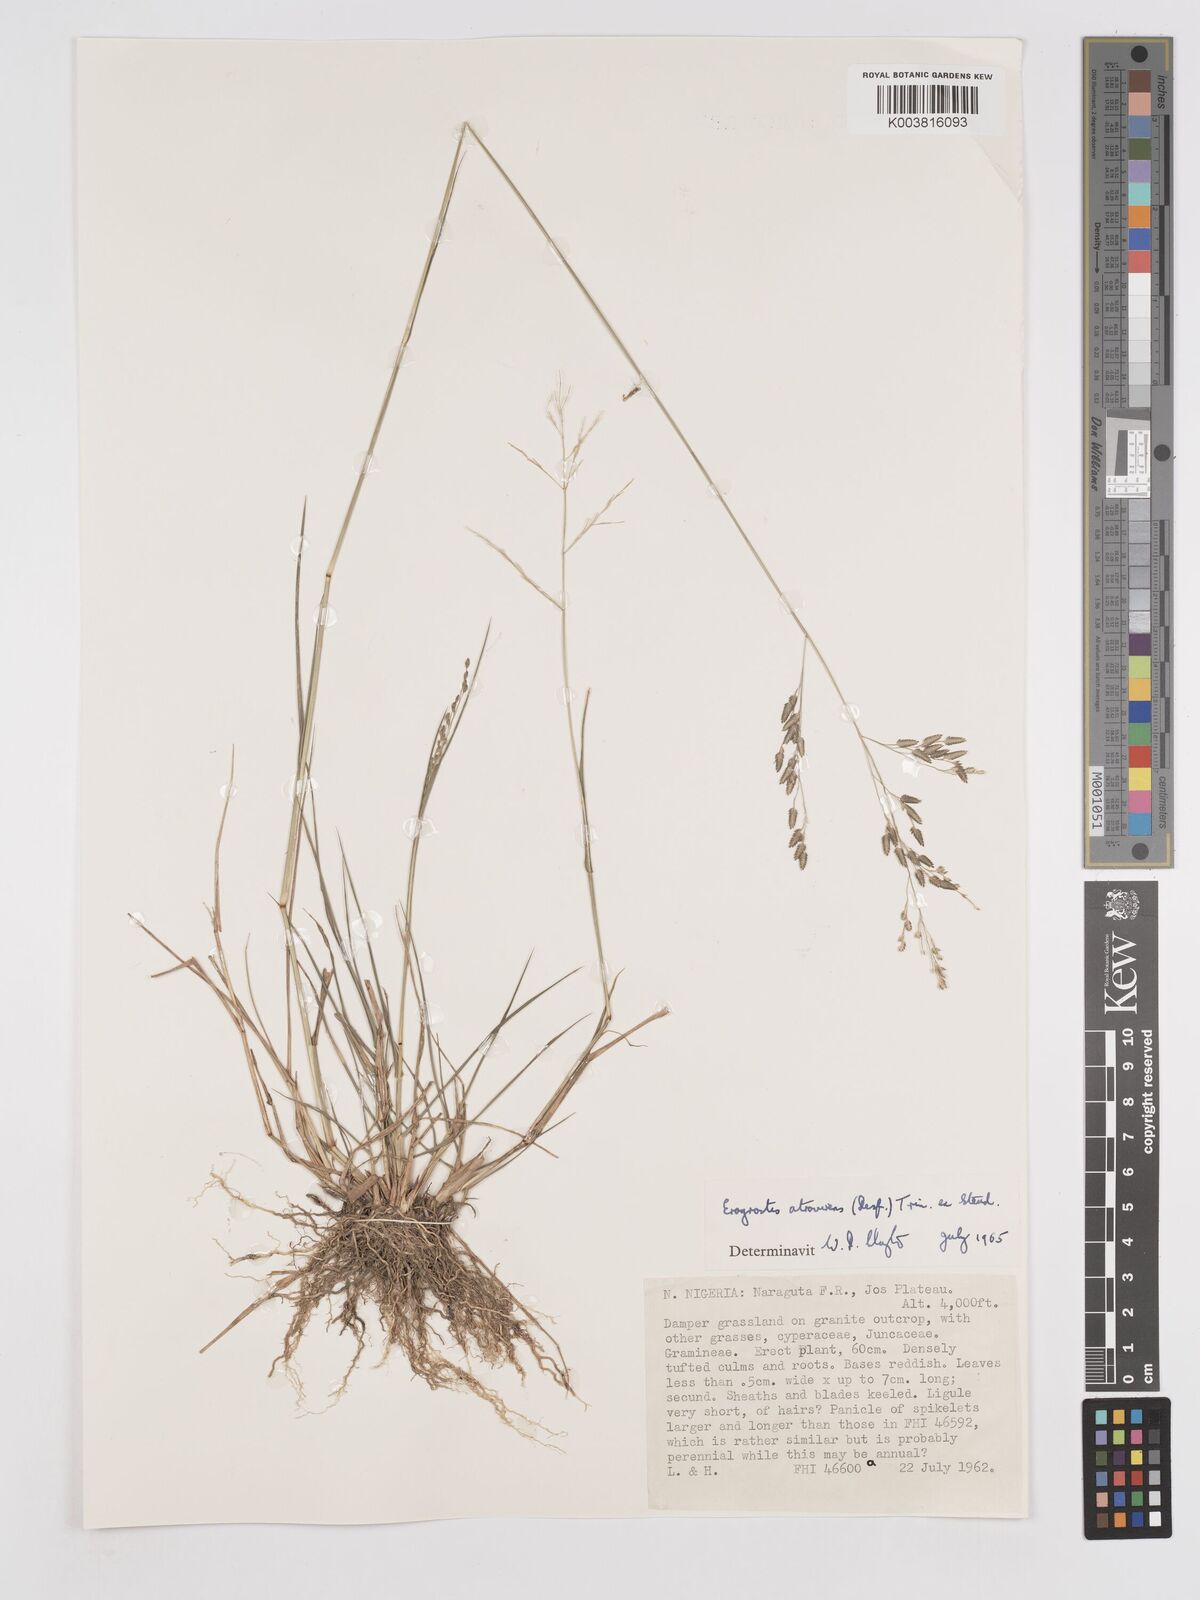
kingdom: Plantae
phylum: Tracheophyta
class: Liliopsida
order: Poales
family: Poaceae
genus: Eragrostis
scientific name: Eragrostis atrovirens
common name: Thalia lovegrass
